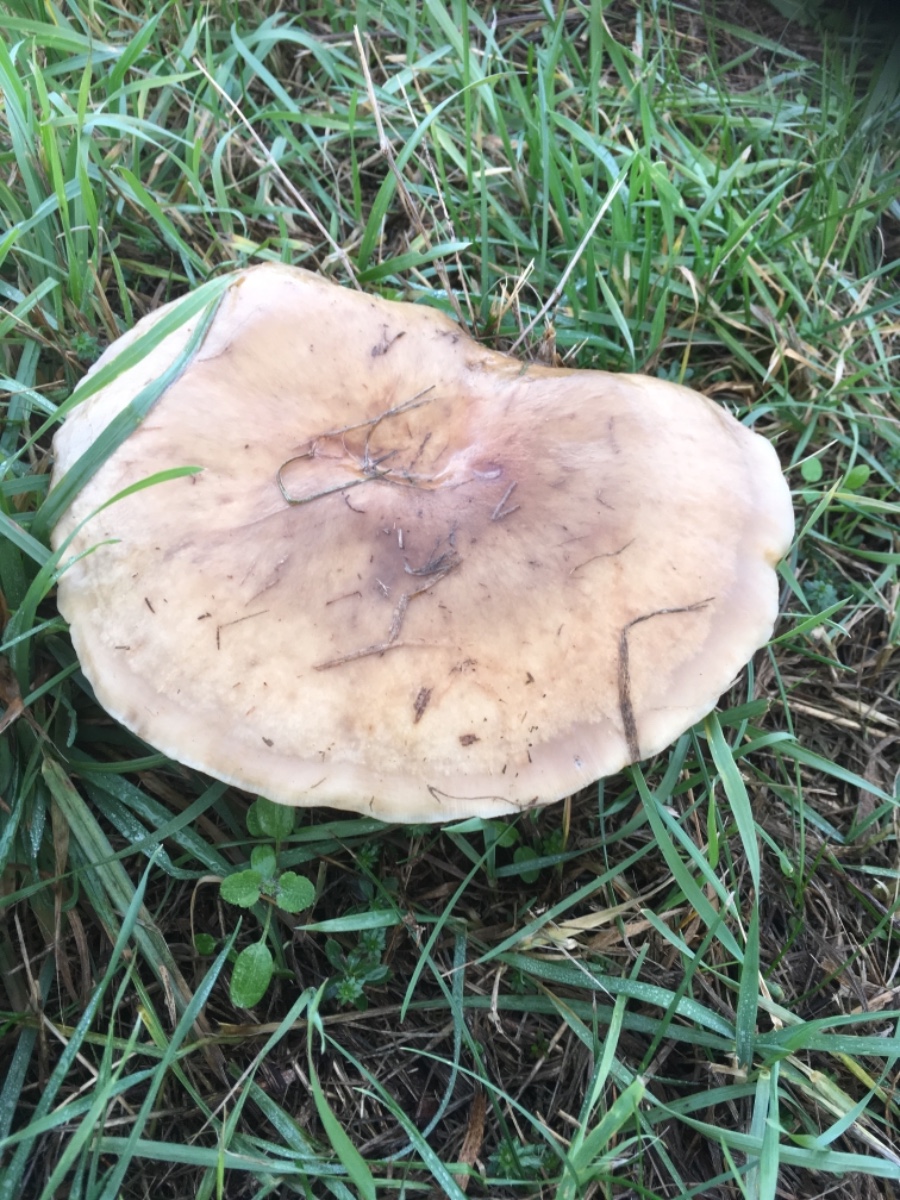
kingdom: Fungi
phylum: Basidiomycota
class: Agaricomycetes
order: Agaricales
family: Tricholomataceae
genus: Lepista
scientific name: Lepista personata
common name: bleg hekseringshat
